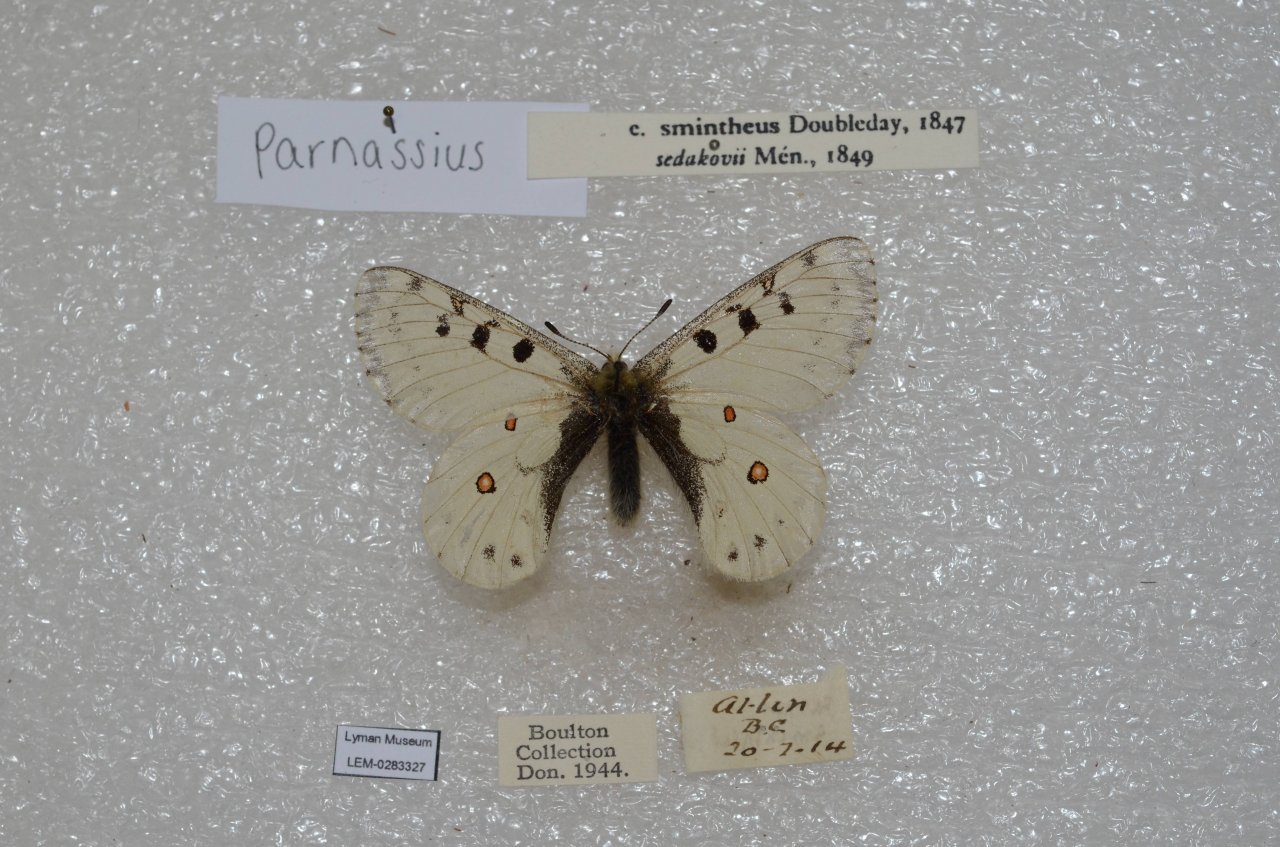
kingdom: Animalia
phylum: Arthropoda
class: Insecta
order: Lepidoptera
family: Papilionidae
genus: Parnassius
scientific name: Parnassius smintheus
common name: Rocky Mountain Parnassian
